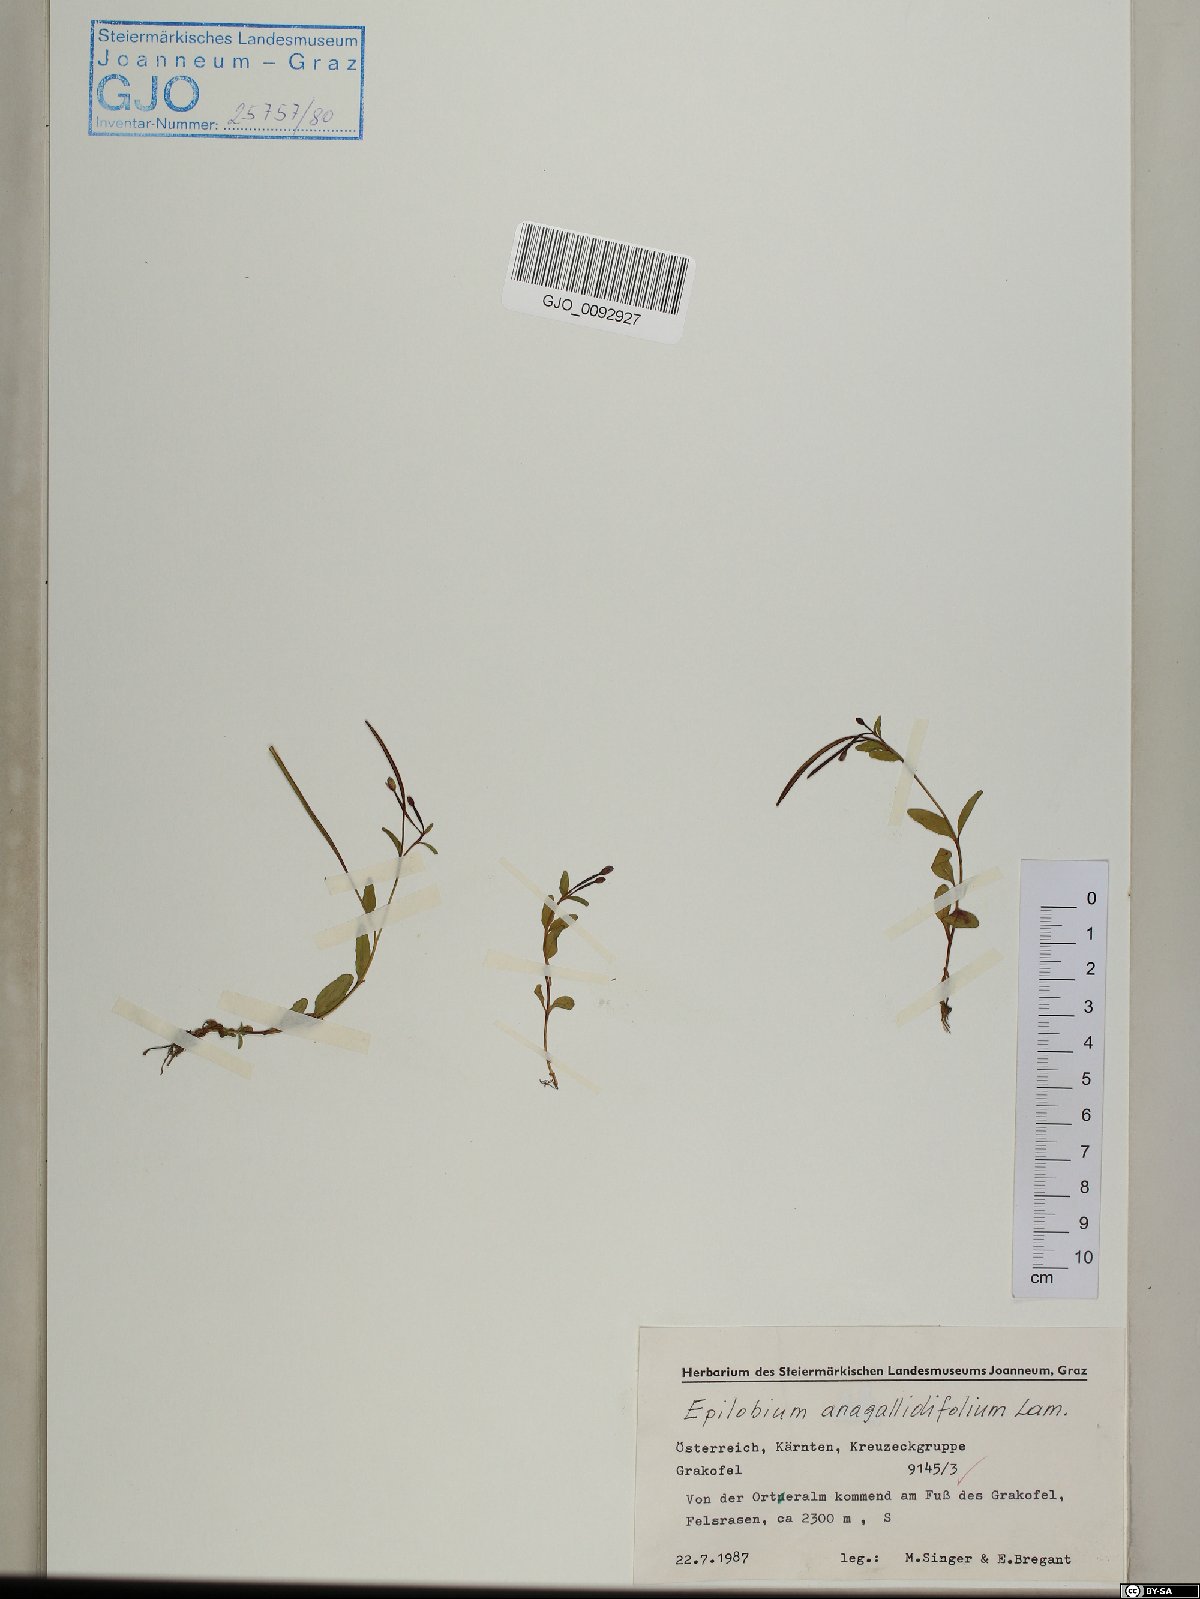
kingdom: Plantae
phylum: Tracheophyta
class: Magnoliopsida
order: Myrtales
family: Onagraceae
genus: Epilobium
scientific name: Epilobium anagallidifolium
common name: Alpine willowherb
